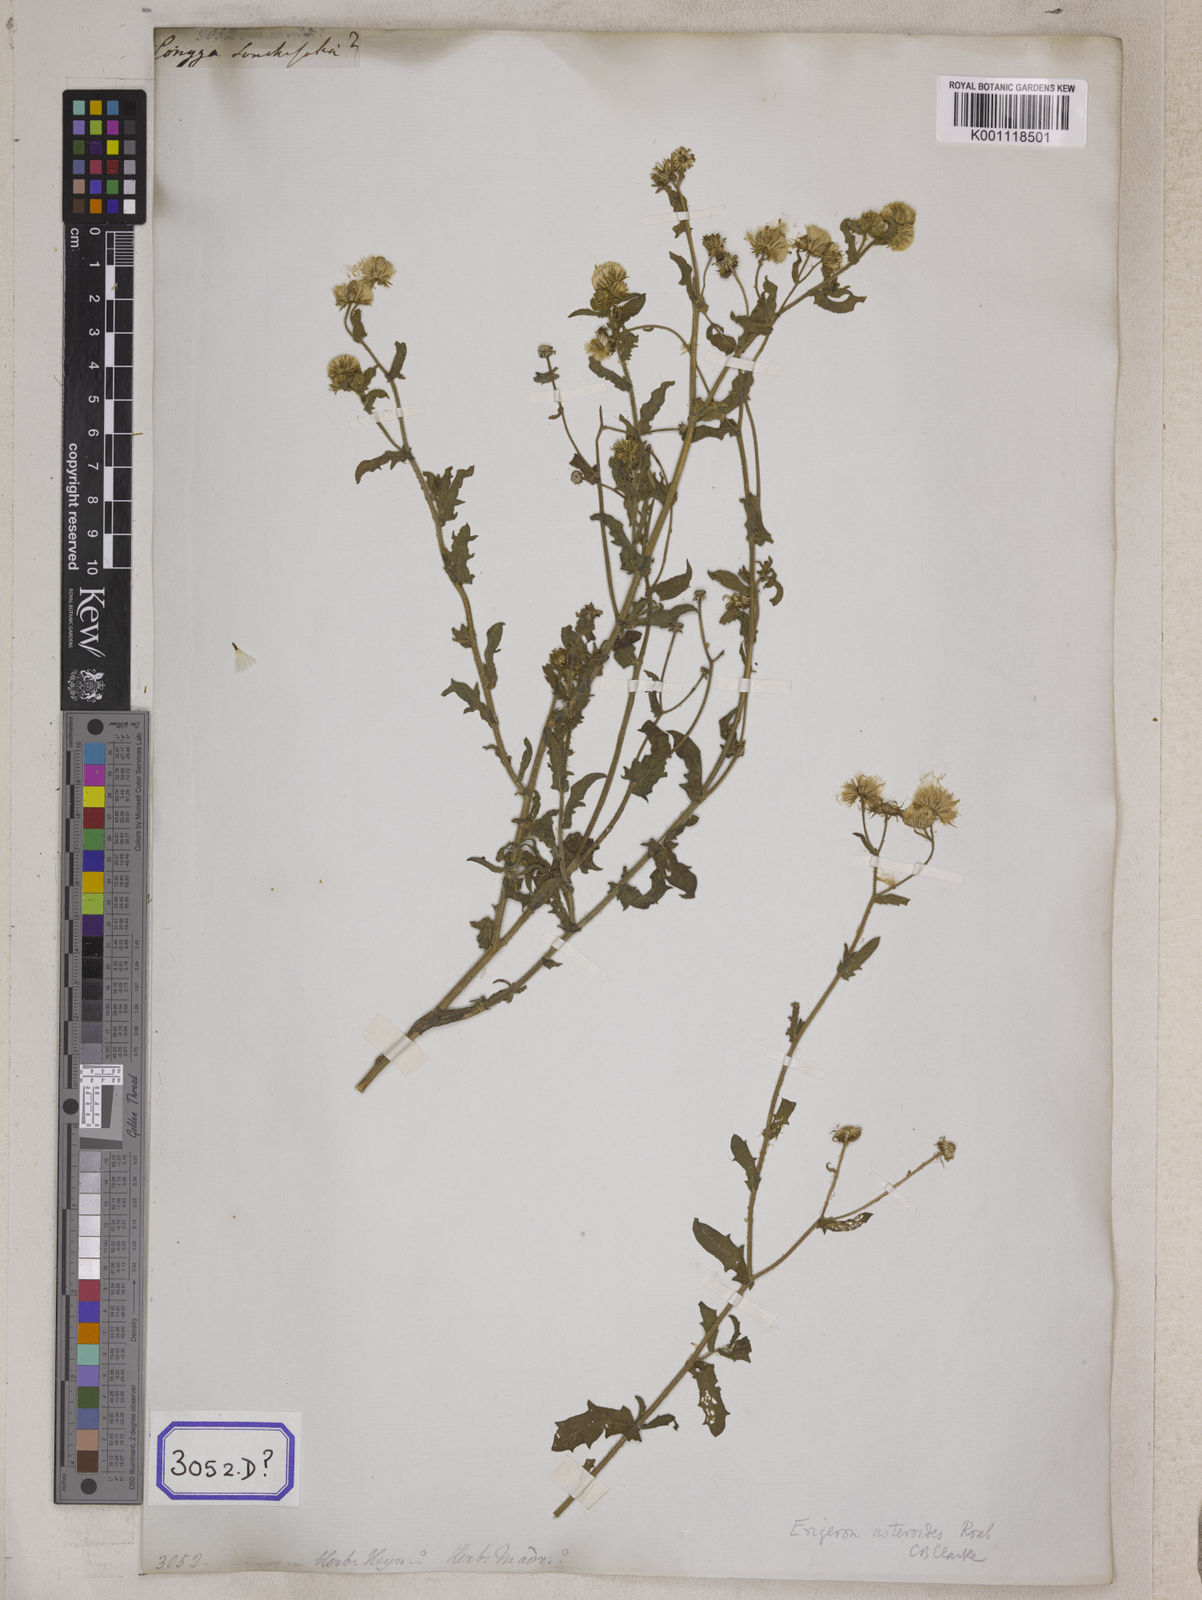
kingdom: Plantae
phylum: Tracheophyta
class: Magnoliopsida
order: Asterales
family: Asteraceae
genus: Pluchea
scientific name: Pluchea dioscoridis
